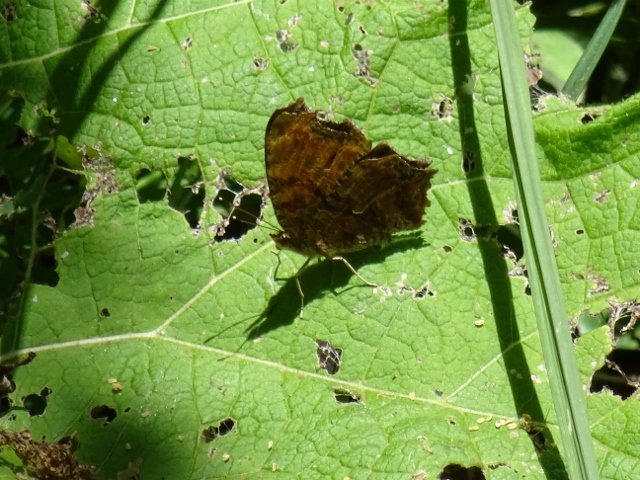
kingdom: Animalia
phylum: Arthropoda
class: Insecta
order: Lepidoptera
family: Nymphalidae
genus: Polygonia
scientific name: Polygonia comma
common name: Eastern Comma
